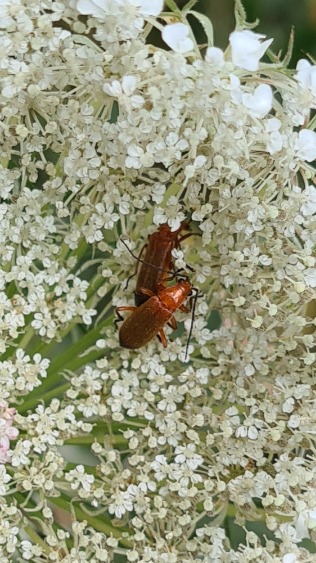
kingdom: Animalia
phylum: Arthropoda
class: Insecta
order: Coleoptera
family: Cantharidae
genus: Rhagonycha
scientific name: Rhagonycha fulva
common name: Præstebille
